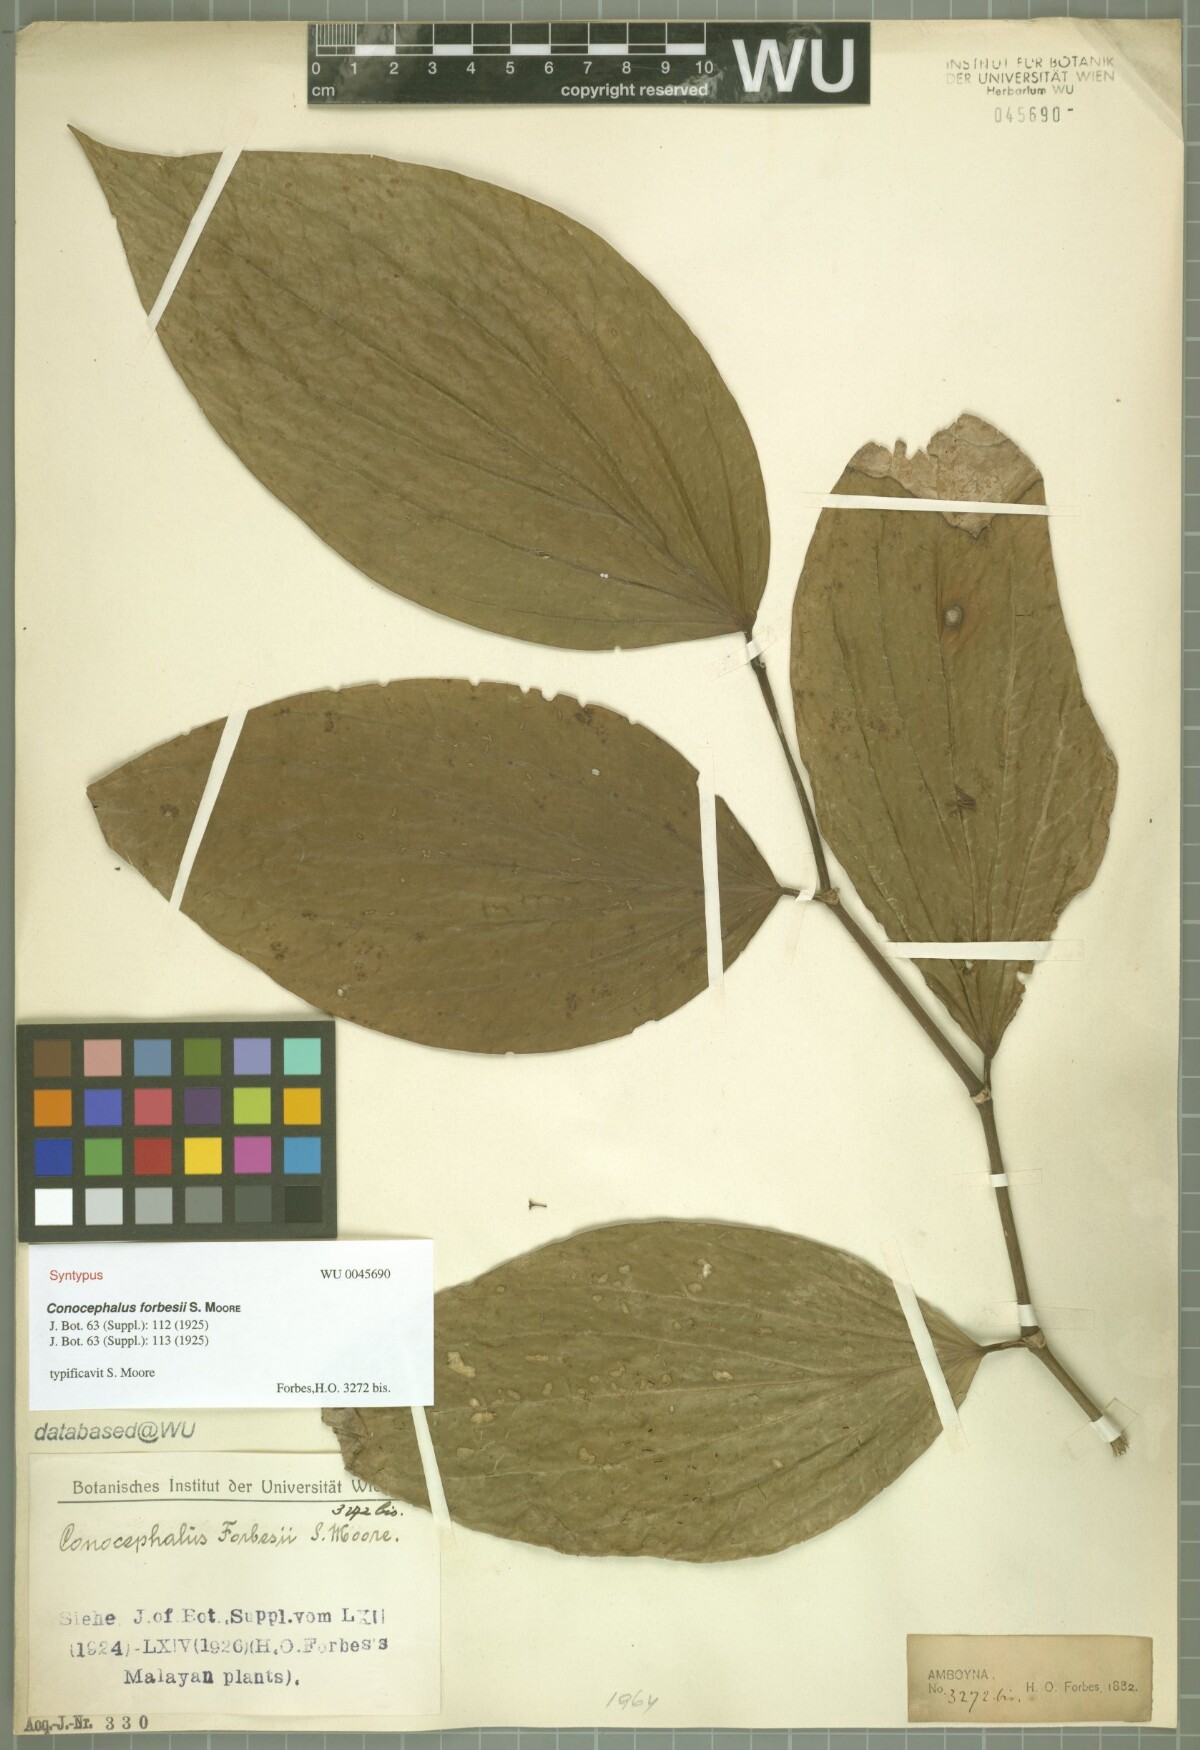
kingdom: Plantae
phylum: Tracheophyta
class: Magnoliopsida
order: Rosales
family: Urticaceae
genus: Poikilospermum
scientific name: Poikilospermum forbesii
